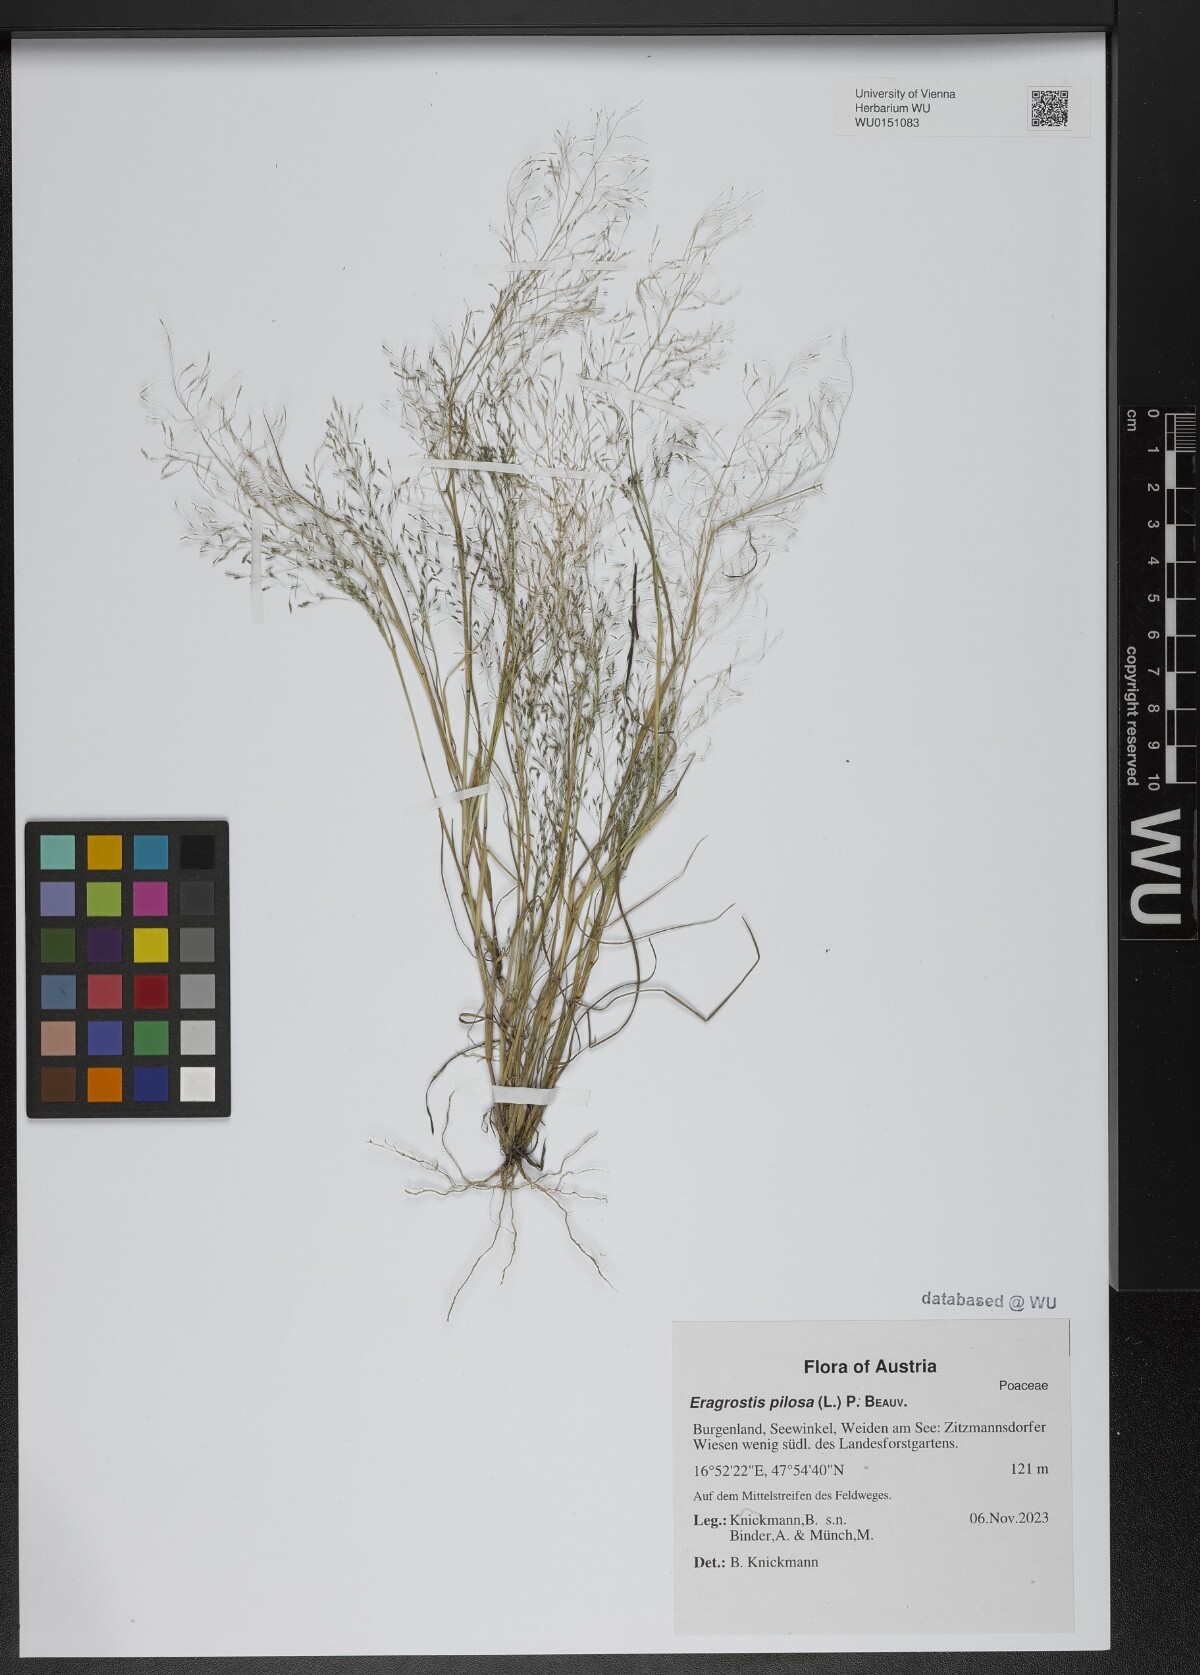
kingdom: Plantae
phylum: Tracheophyta
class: Liliopsida
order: Poales
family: Poaceae
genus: Eragrostis
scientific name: Eragrostis pilosa
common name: Indian lovegrass
